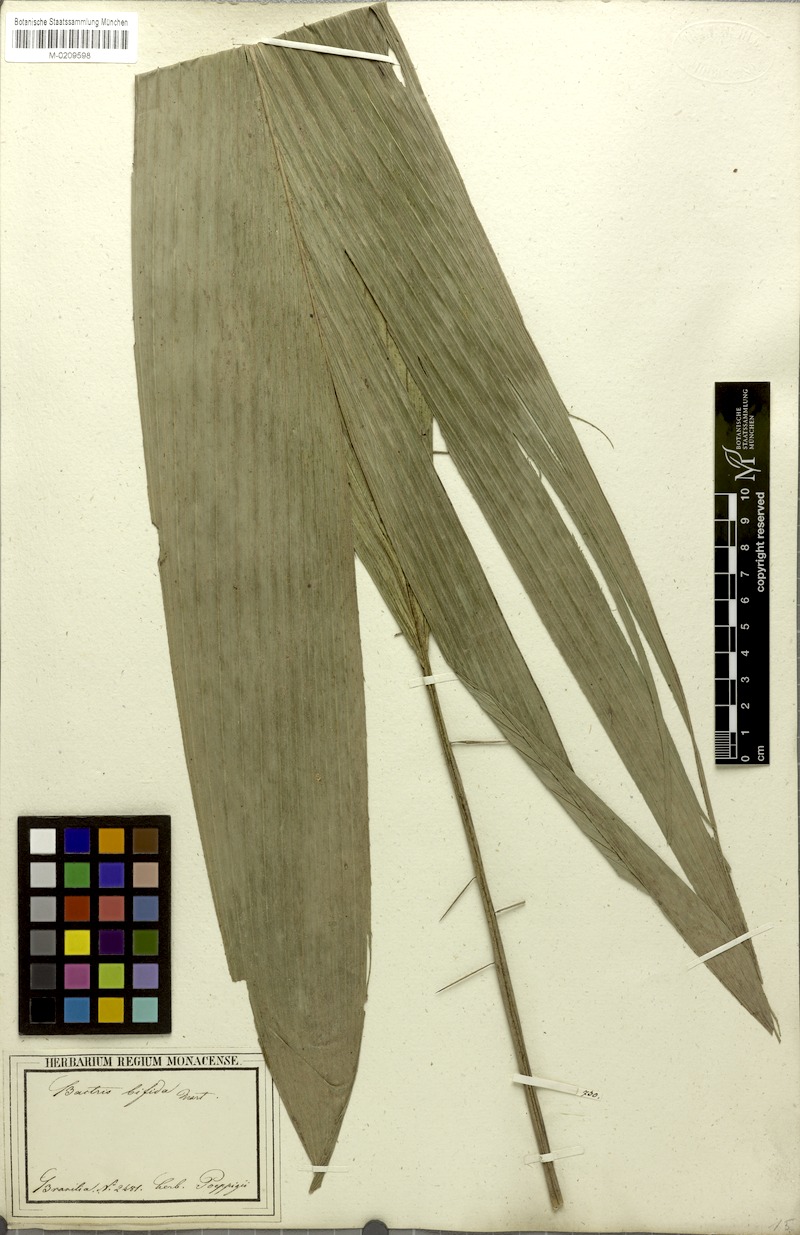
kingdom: Plantae
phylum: Tracheophyta
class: Liliopsida
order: Arecales
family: Arecaceae
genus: Bactris
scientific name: Bactris bifida
